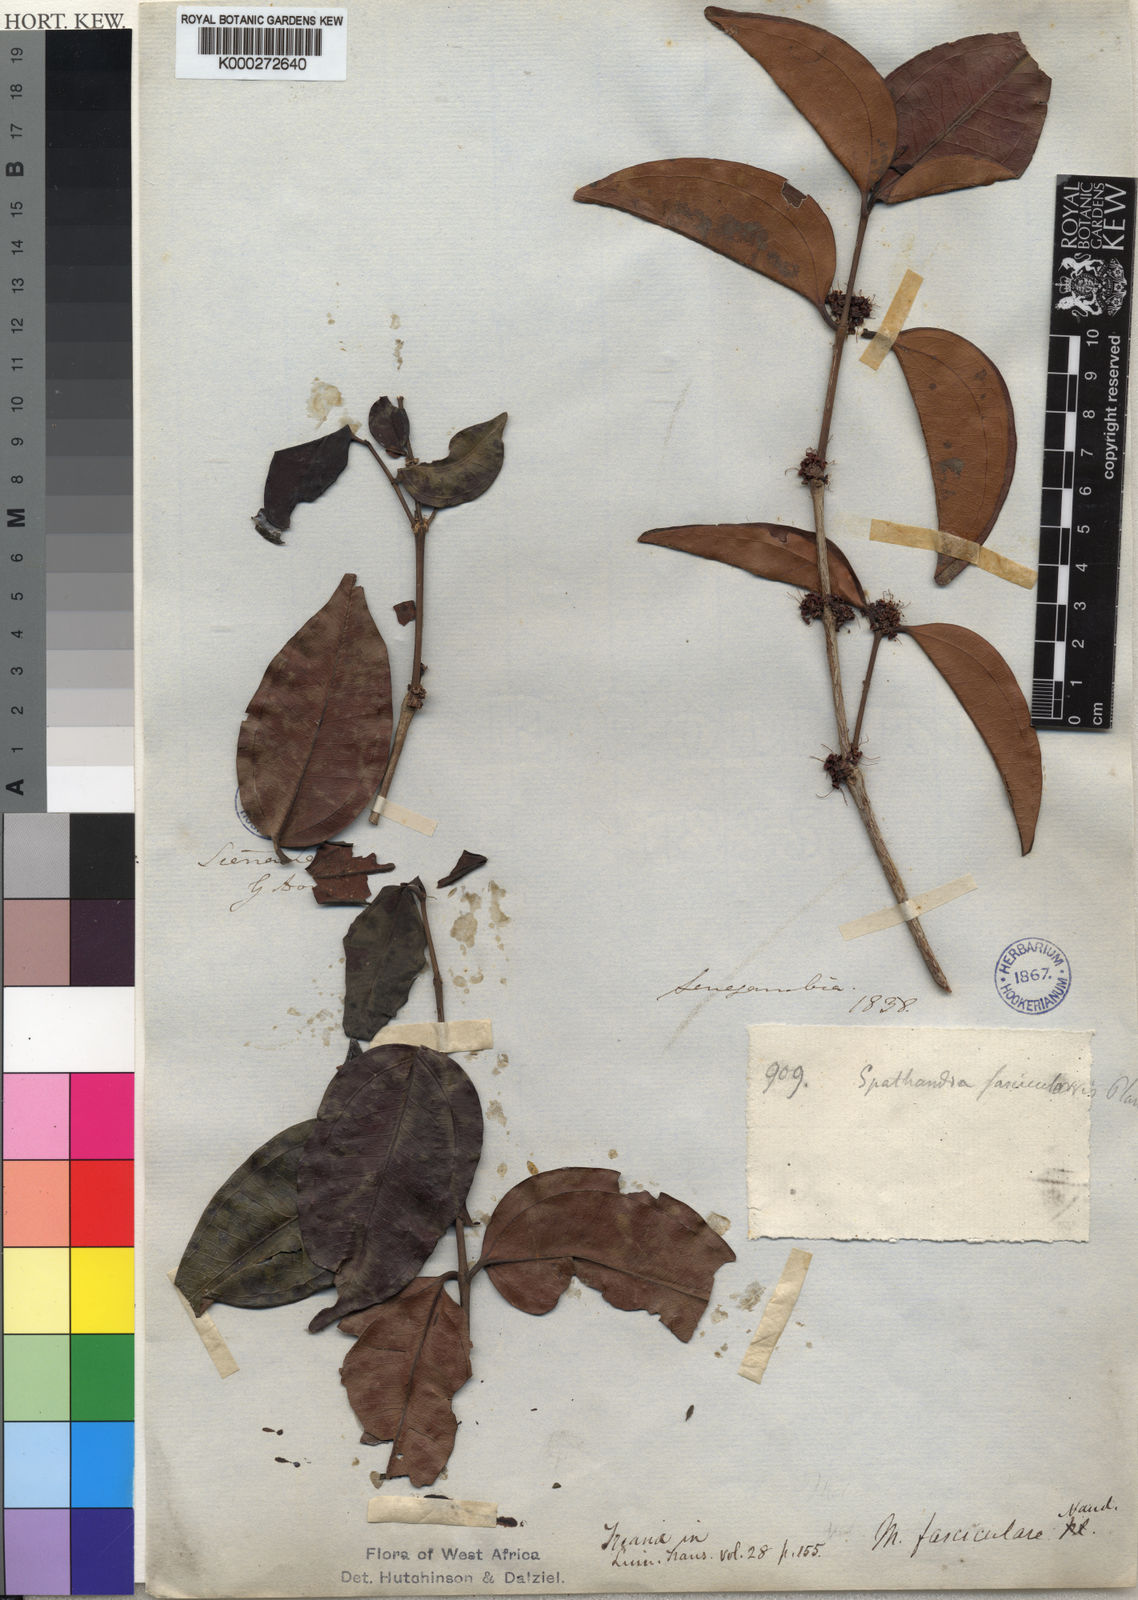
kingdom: Plantae
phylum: Tracheophyta
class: Magnoliopsida
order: Myrtales
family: Melastomataceae
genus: Warneckea
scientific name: Warneckea
